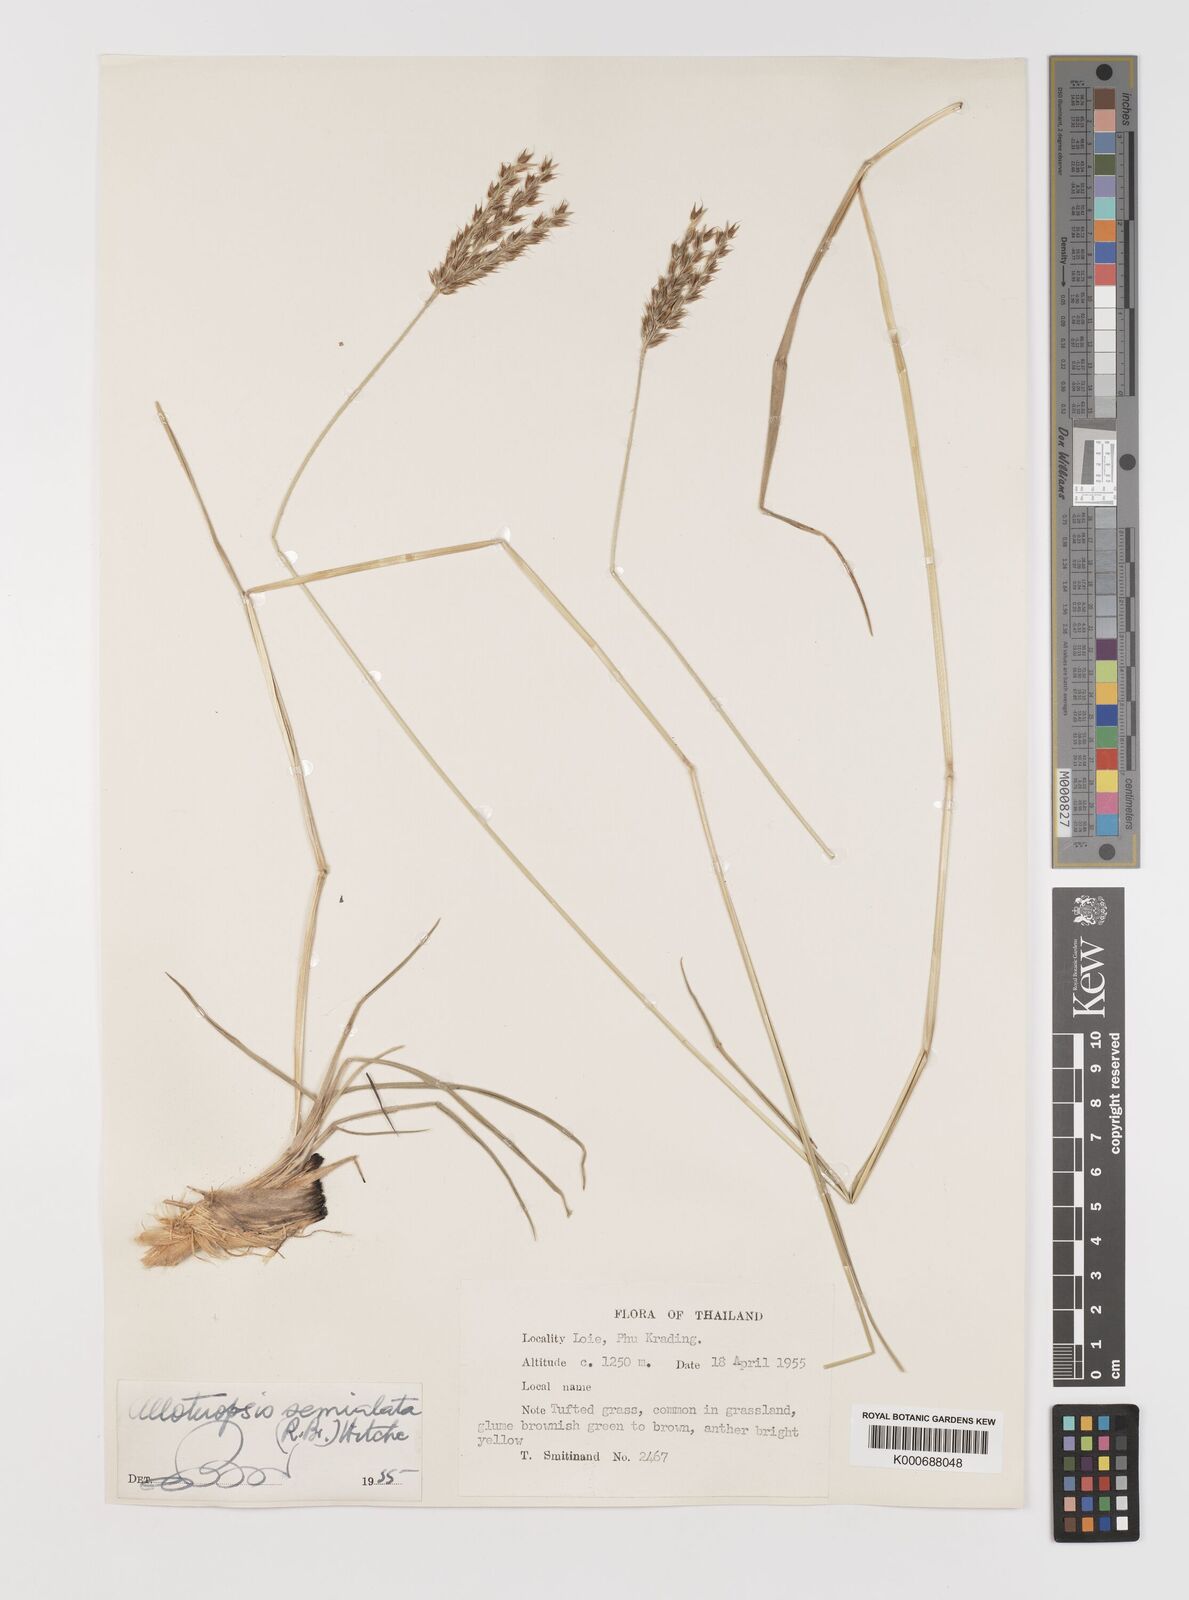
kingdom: Plantae
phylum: Tracheophyta
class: Liliopsida
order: Poales
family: Poaceae
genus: Alloteropsis
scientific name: Alloteropsis semialata
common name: Cockatoo grass
